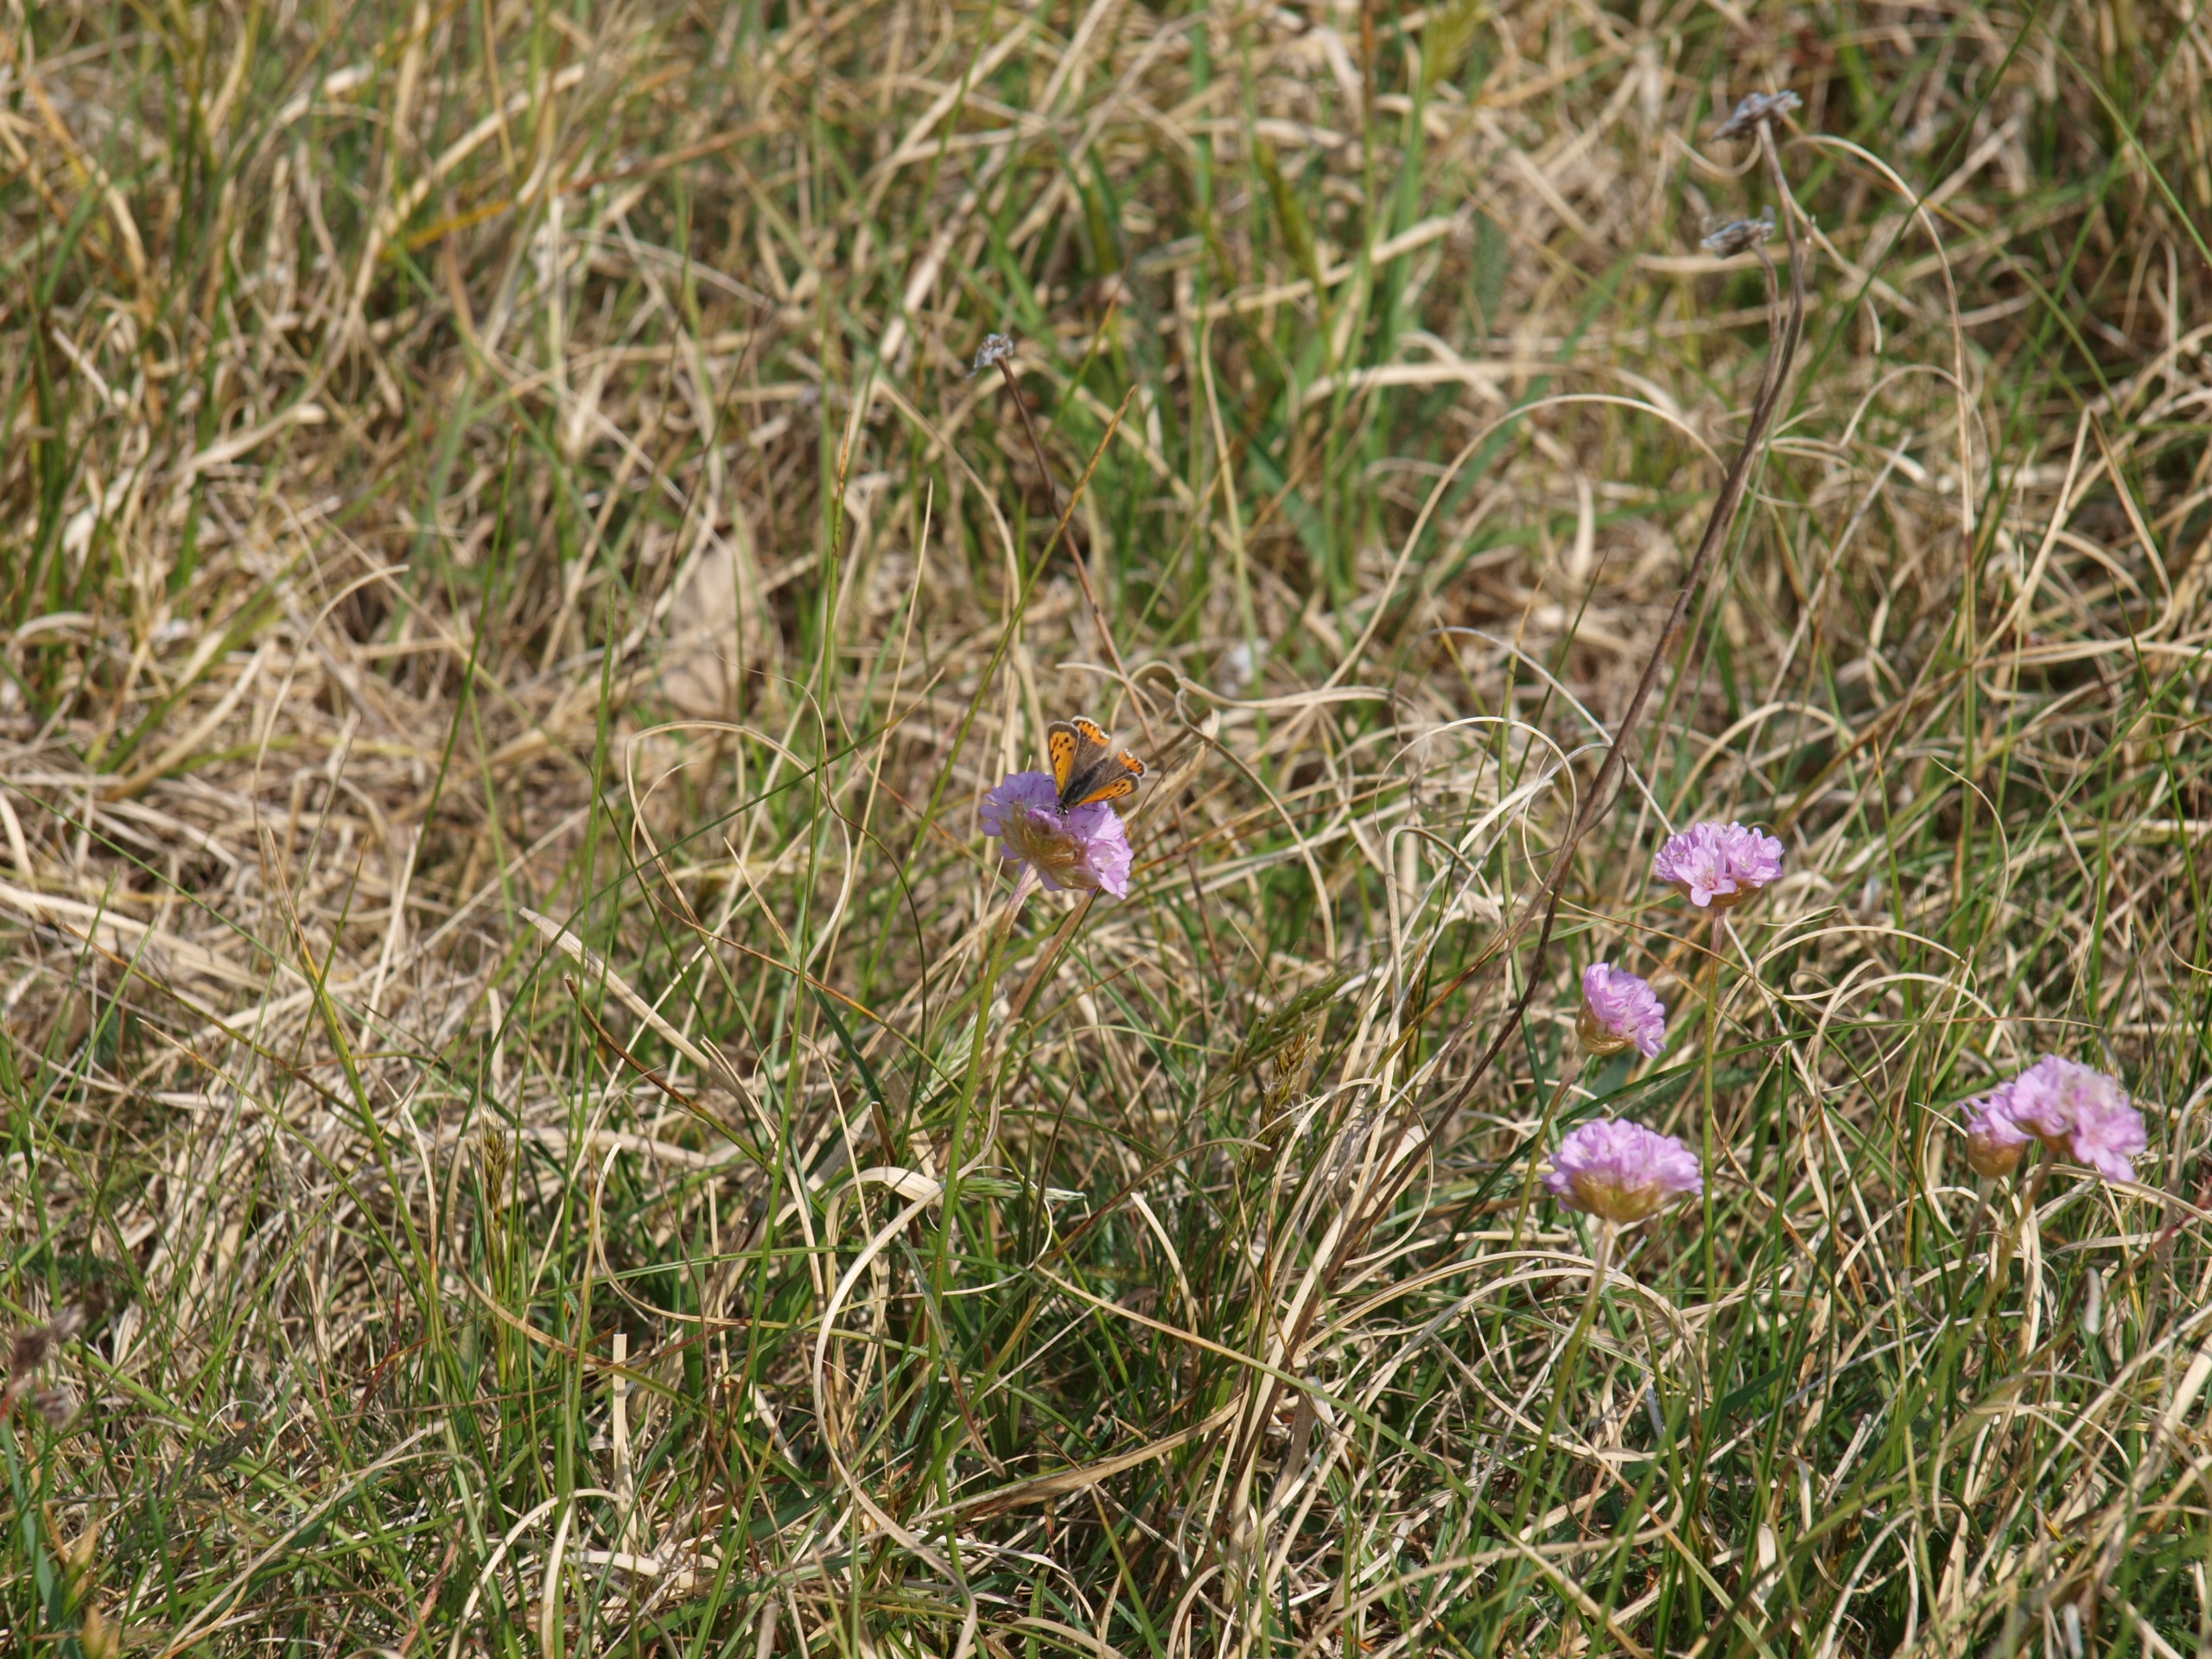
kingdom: Animalia
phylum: Arthropoda
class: Insecta
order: Lepidoptera
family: Lycaenidae
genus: Lycaena
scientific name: Lycaena phlaeas
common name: Lille ildfugl
